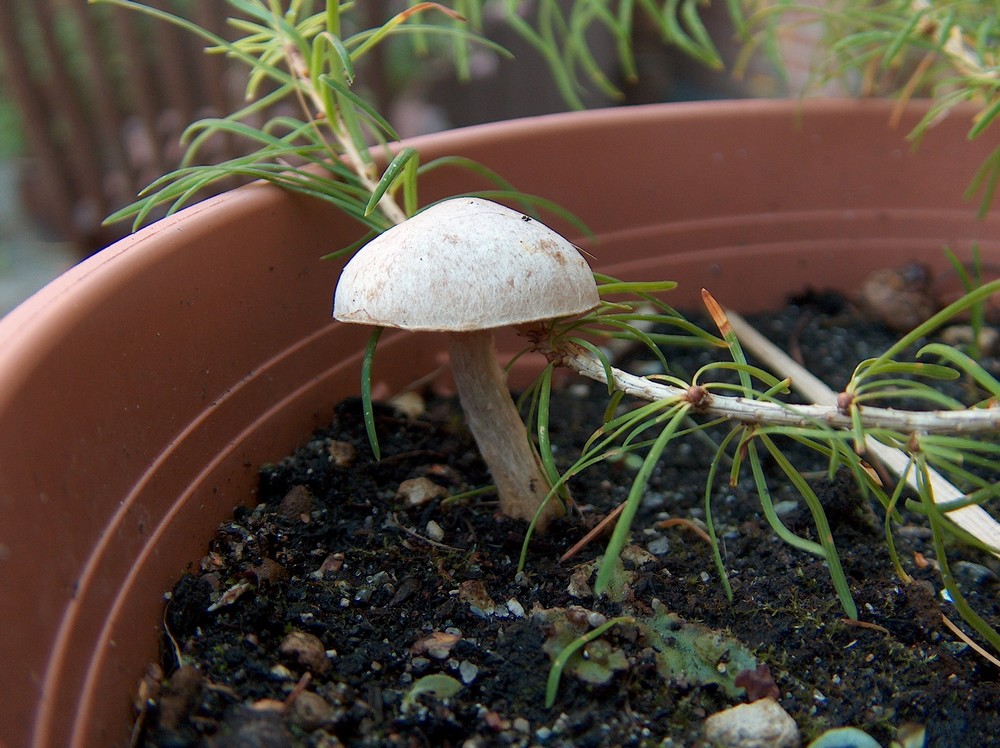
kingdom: Fungi
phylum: Basidiomycota
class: Agaricomycetes
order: Agaricales
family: Hymenogastraceae
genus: Hebeloma
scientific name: Hebeloma mesophaeum
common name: lerbrun tåreblad
